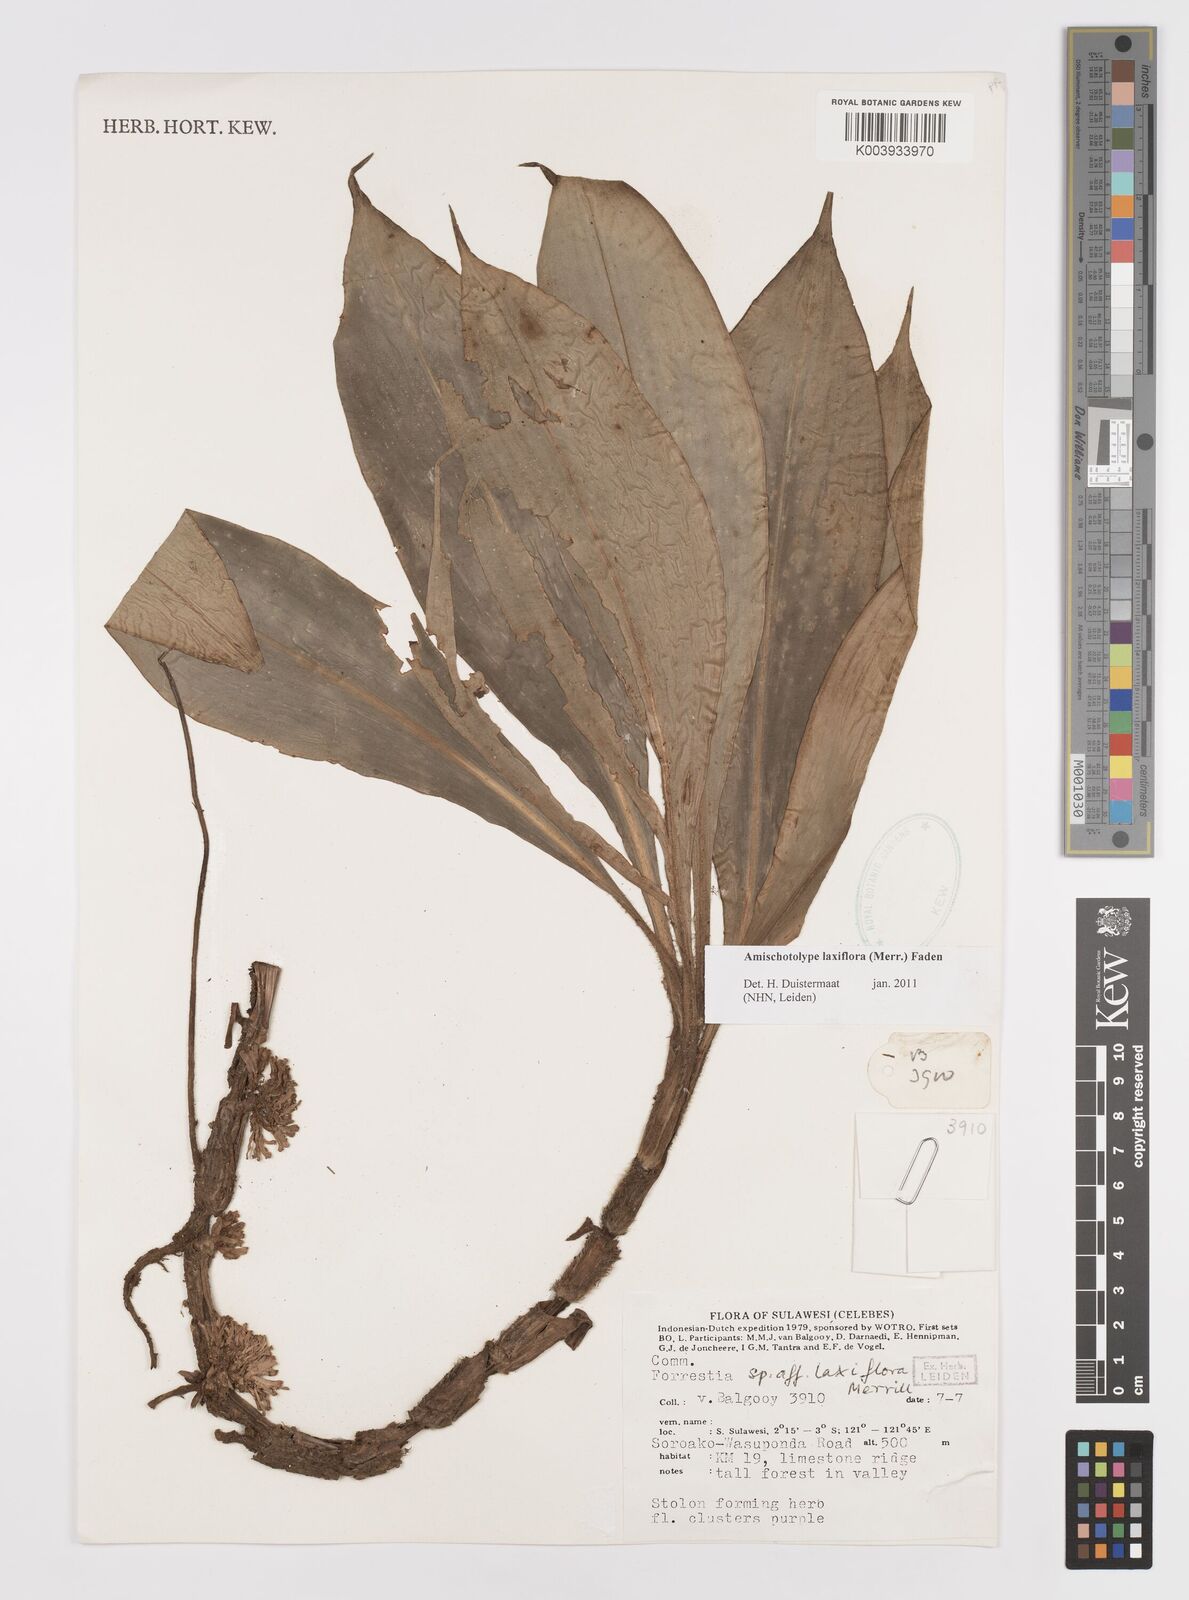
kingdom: Plantae
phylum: Tracheophyta
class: Liliopsida
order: Commelinales
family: Commelinaceae
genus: Amischotolype
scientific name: Amischotolype laxiflora
